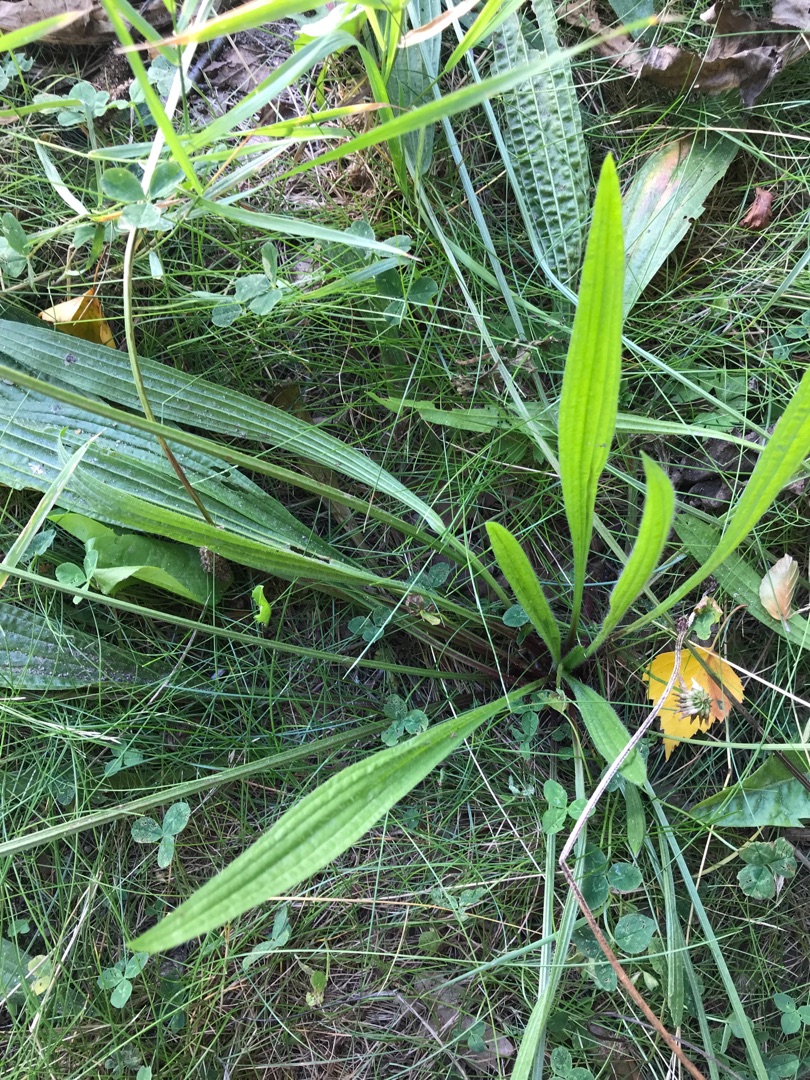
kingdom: Plantae
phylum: Tracheophyta
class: Magnoliopsida
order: Lamiales
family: Plantaginaceae
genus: Plantago
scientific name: Plantago lanceolata
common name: Lancet-vejbred
